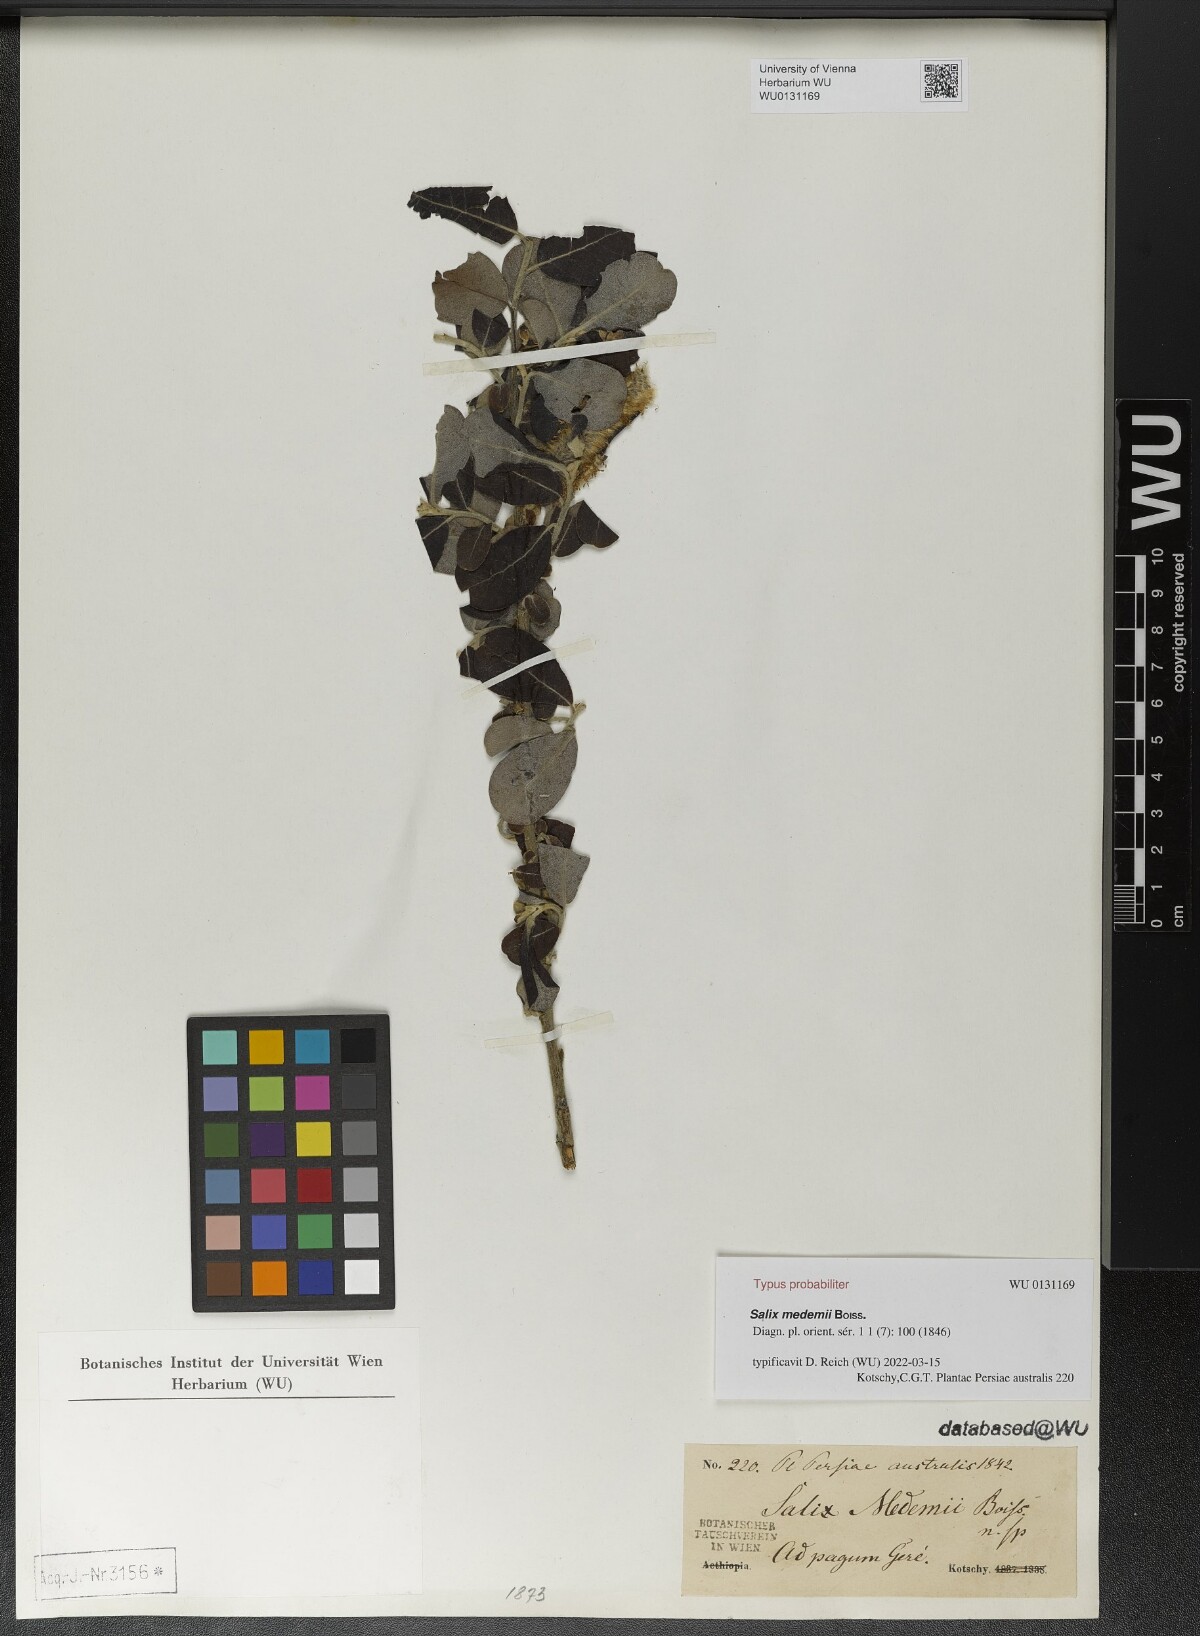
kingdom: Plantae
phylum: Tracheophyta
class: Magnoliopsida
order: Malpighiales
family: Salicaceae
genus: Salix
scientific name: Salix aegyptiaca
